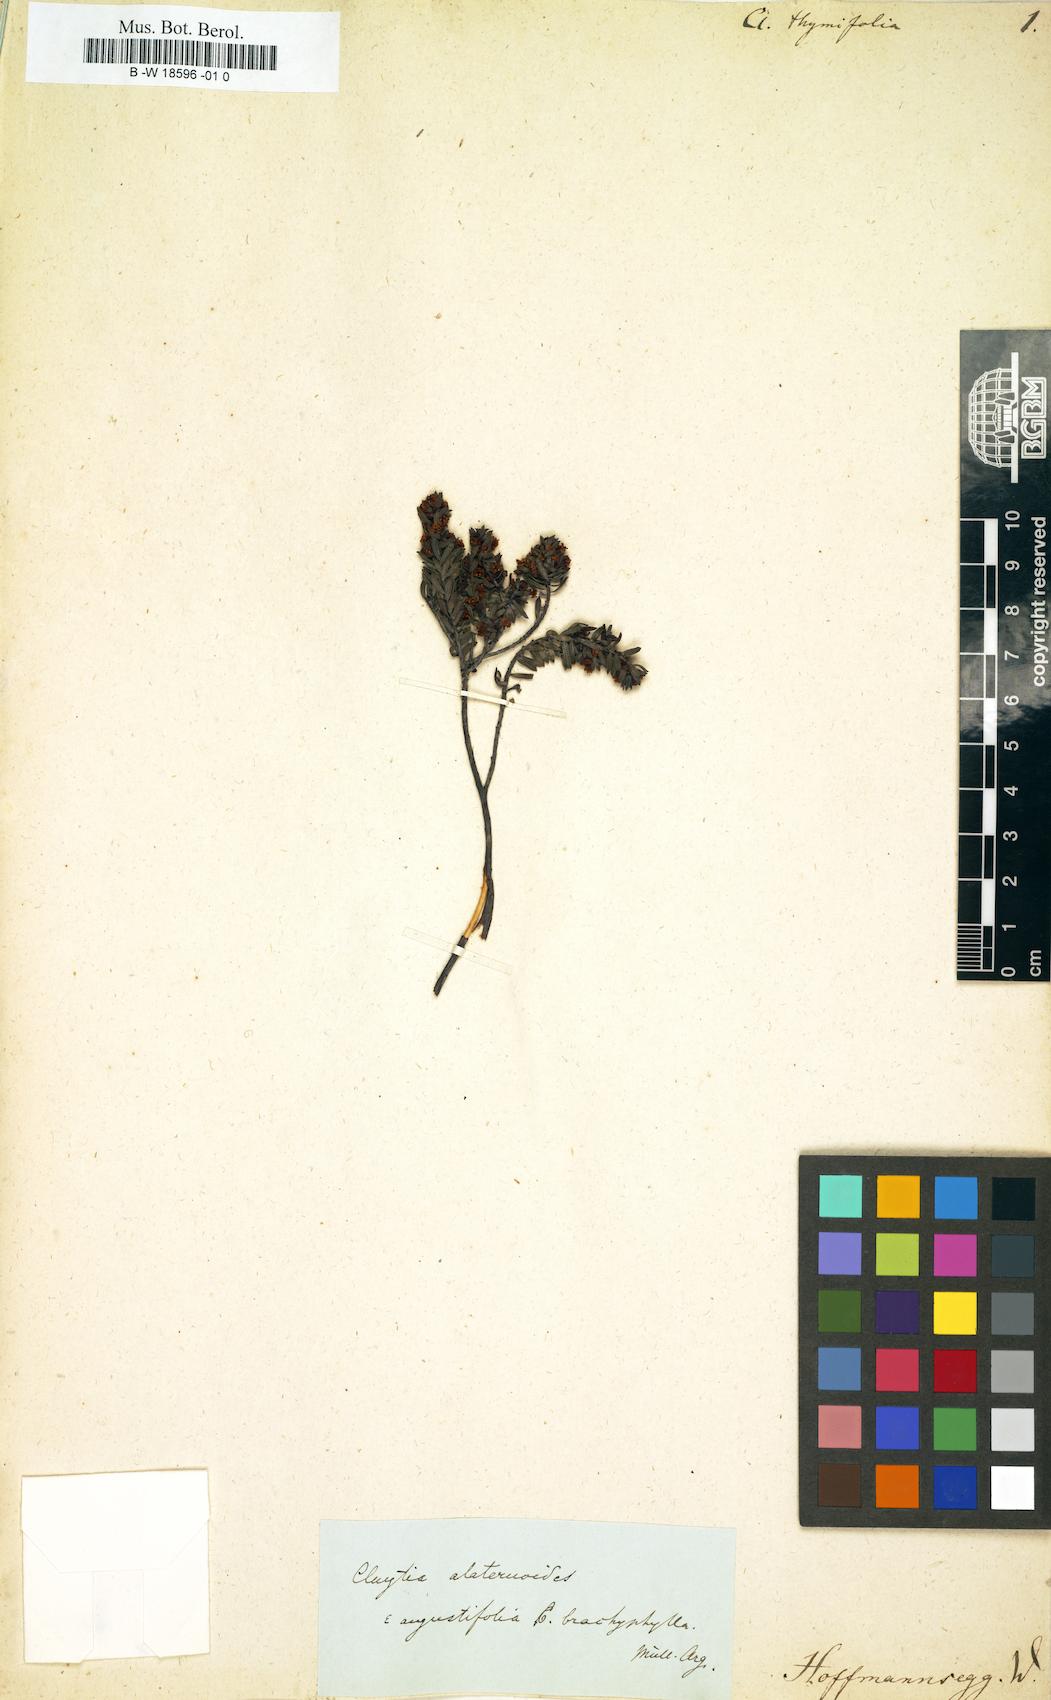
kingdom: Plantae
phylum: Tracheophyta
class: Magnoliopsida
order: Malpighiales
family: Peraceae
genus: Clutia
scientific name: Clutia
